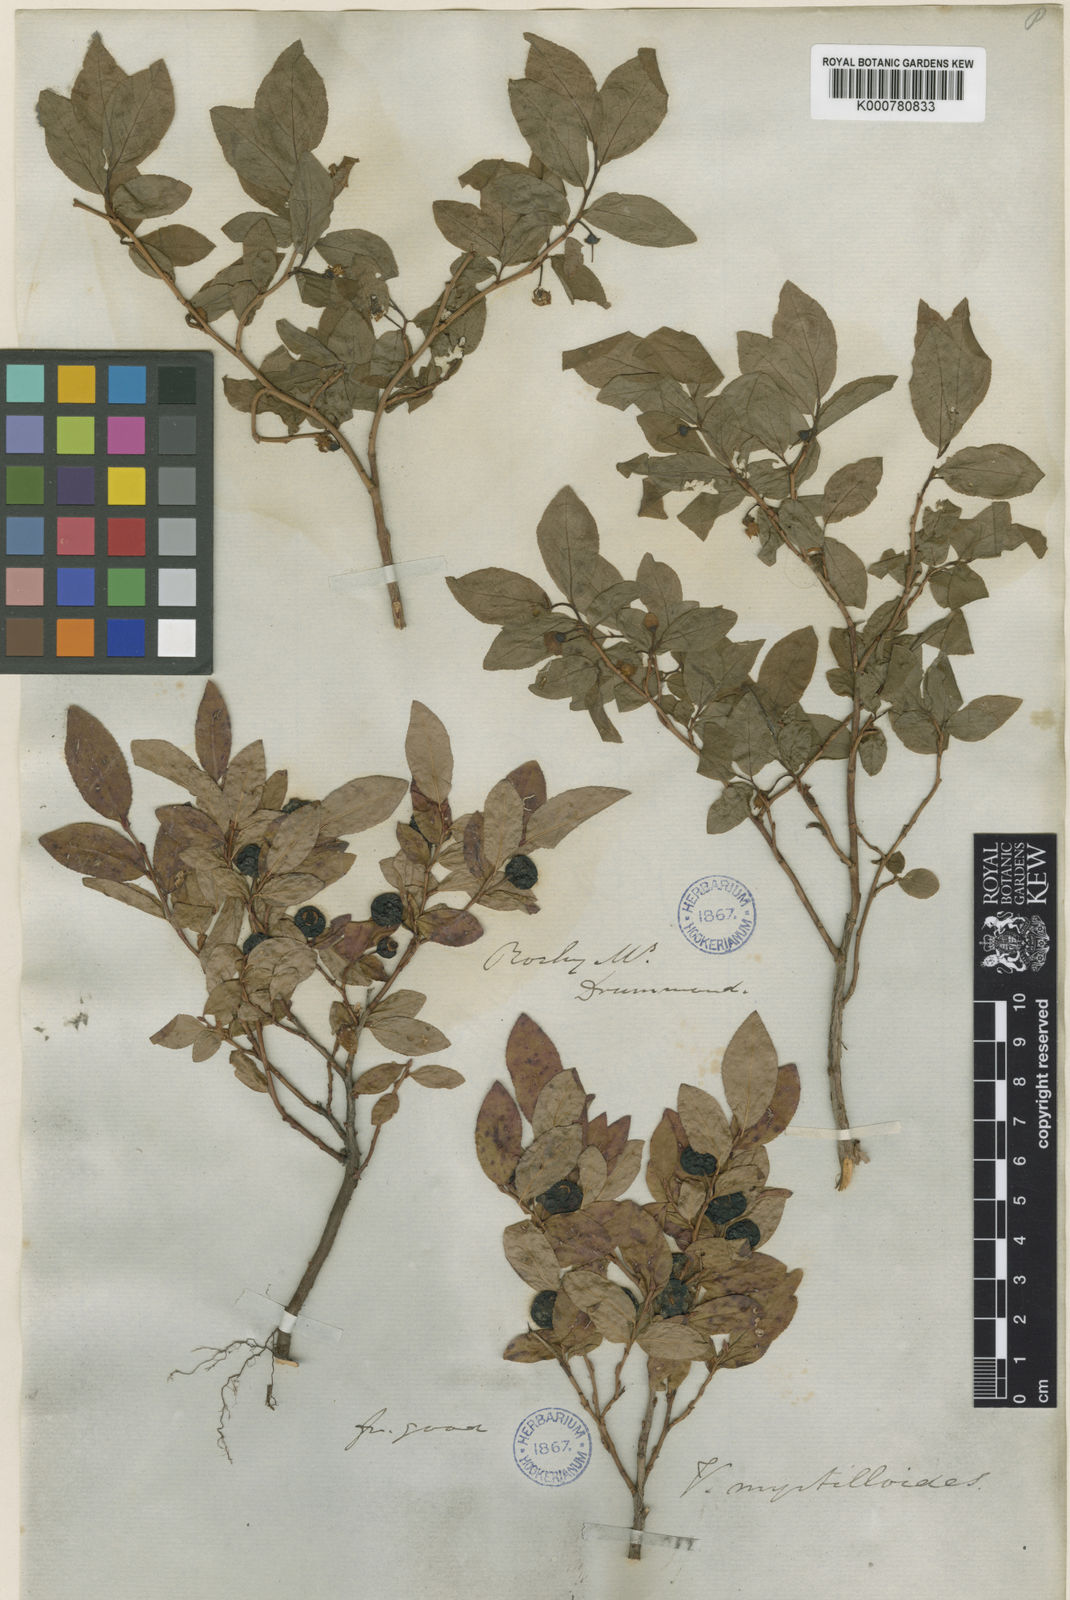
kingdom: Plantae
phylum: Tracheophyta
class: Magnoliopsida
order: Ericales
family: Ericaceae
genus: Vaccinium
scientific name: Vaccinium
